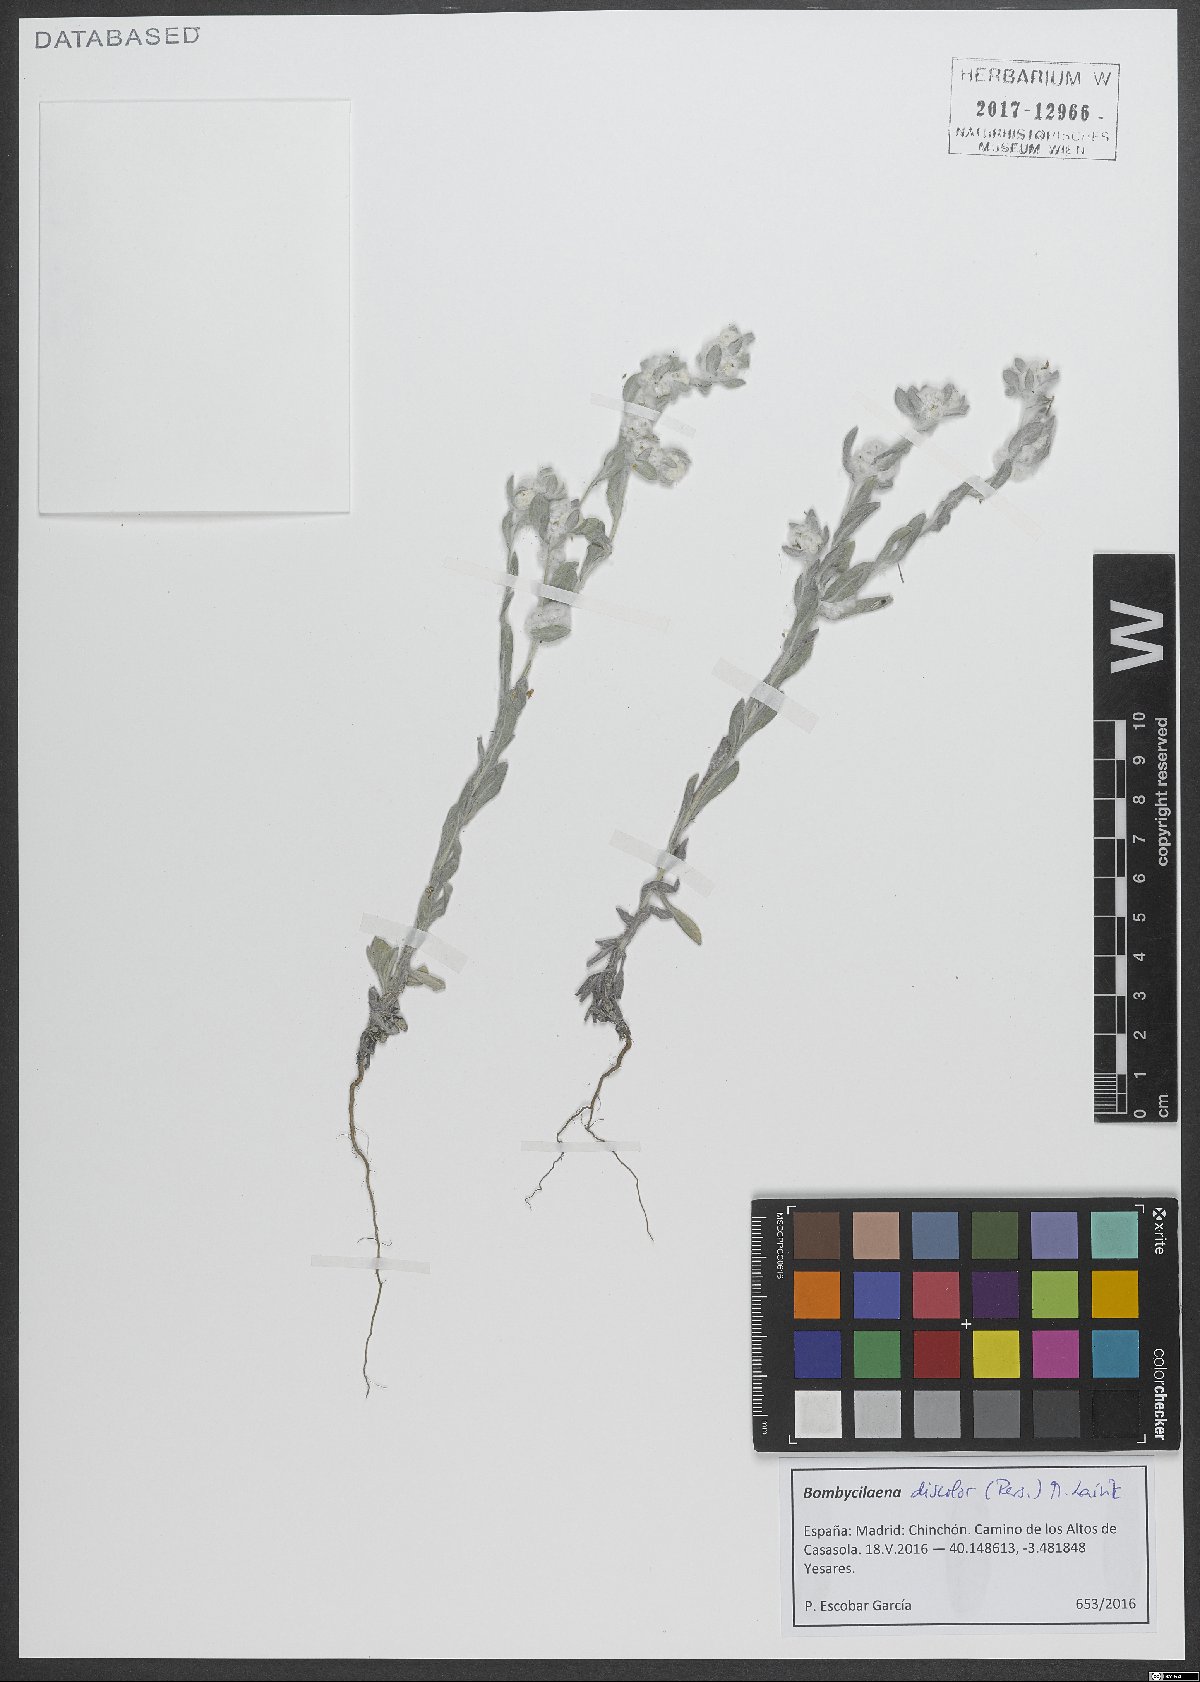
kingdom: Plantae
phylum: Tracheophyta
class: Magnoliopsida
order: Asterales
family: Asteraceae
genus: Bombycilaena
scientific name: Bombycilaena discolor
